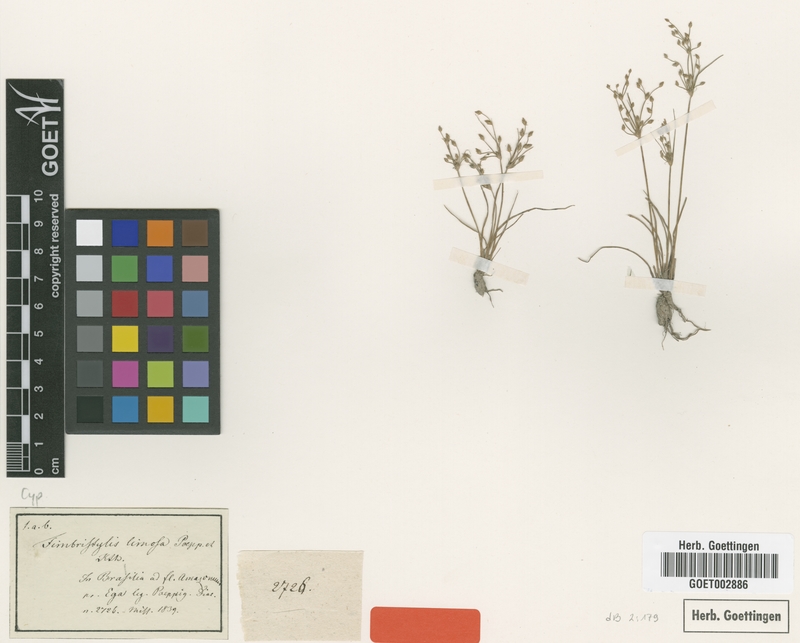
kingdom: Plantae
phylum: Tracheophyta
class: Liliopsida
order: Poales
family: Cyperaceae
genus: Fimbristylis
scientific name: Fimbristylis limosa
